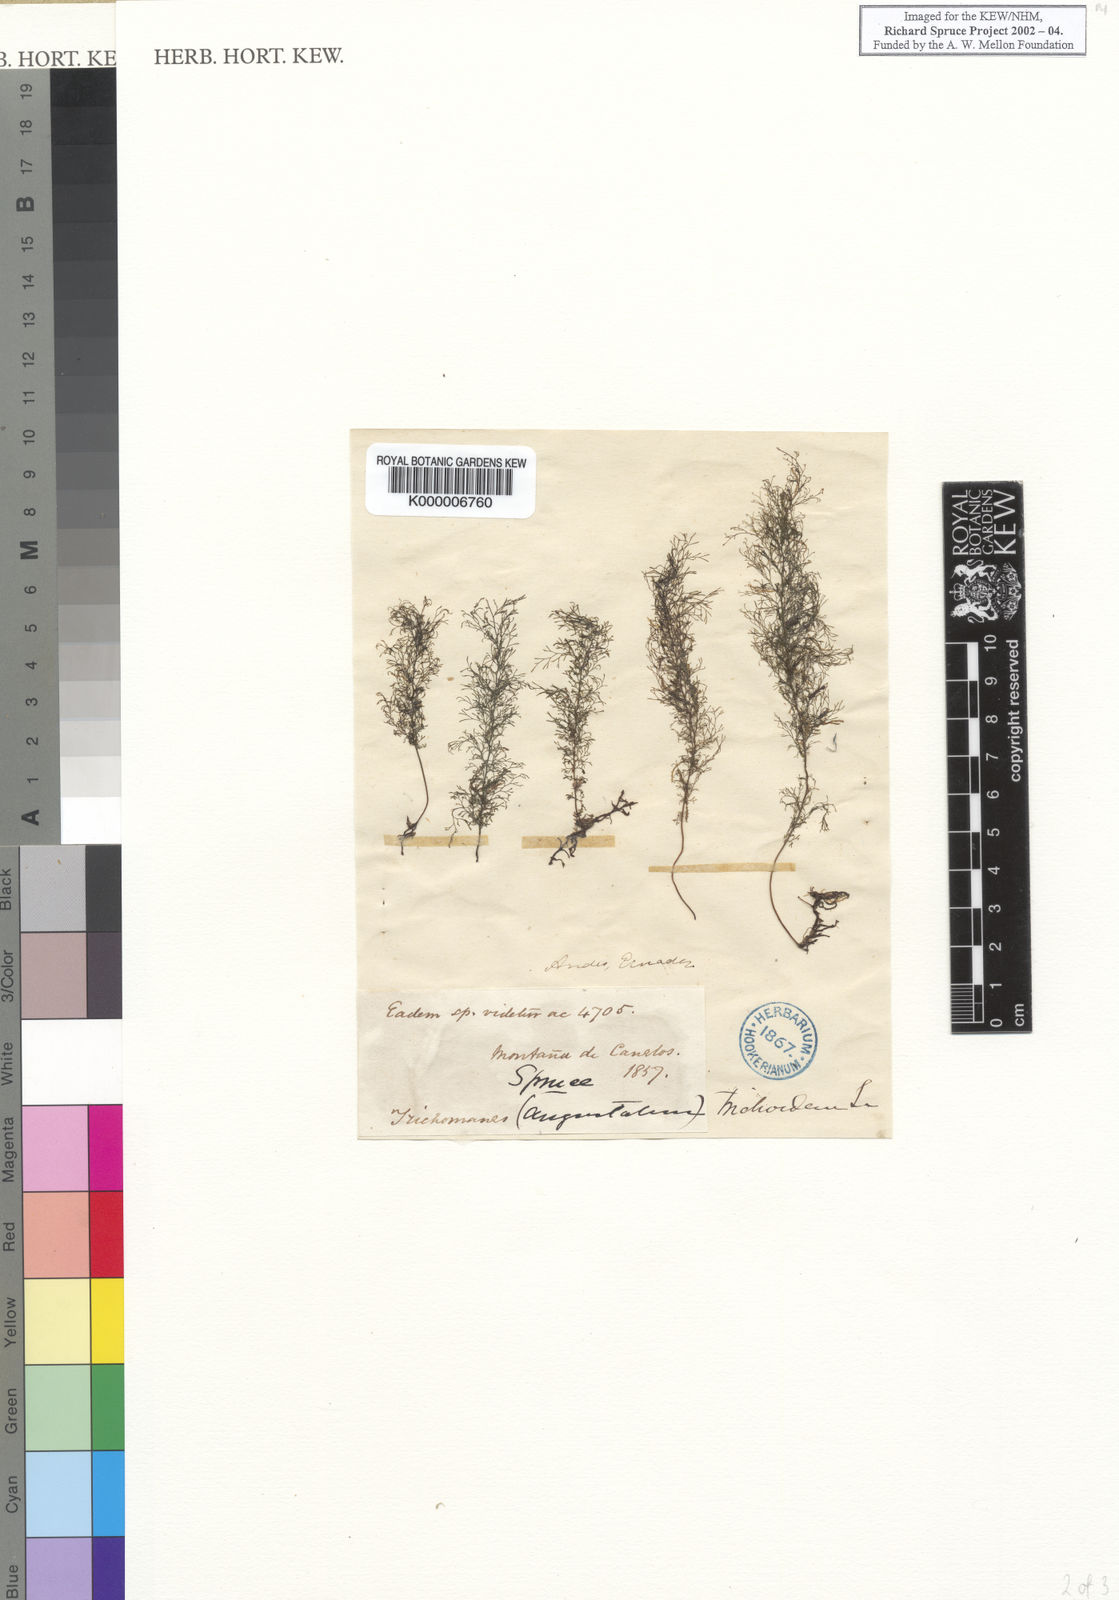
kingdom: Plantae
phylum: Tracheophyta
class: Polypodiopsida
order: Hymenophyllales
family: Hymenophyllaceae
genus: Trichomanes
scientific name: Trichomanes
